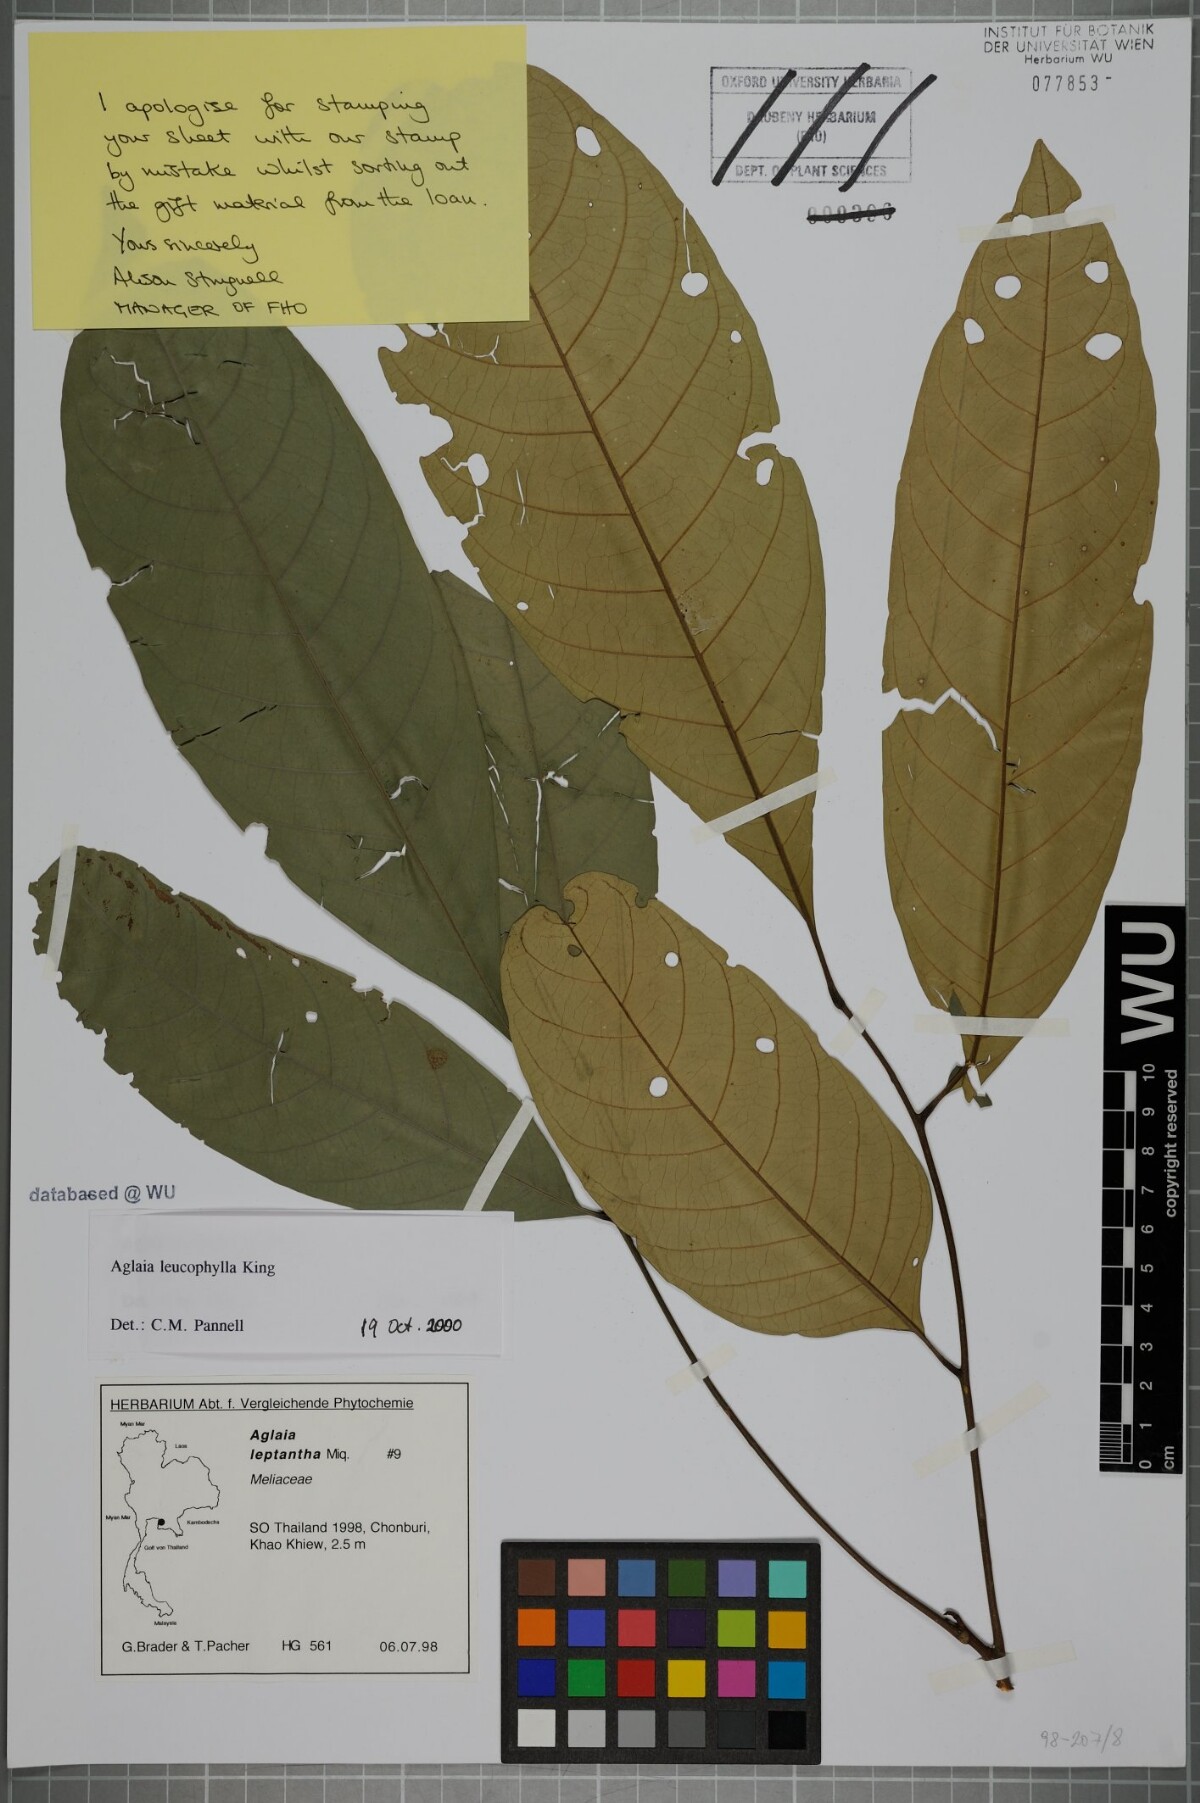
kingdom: Plantae
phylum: Tracheophyta
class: Magnoliopsida
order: Sapindales
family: Meliaceae
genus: Aglaia
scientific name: Aglaia leucophylla
